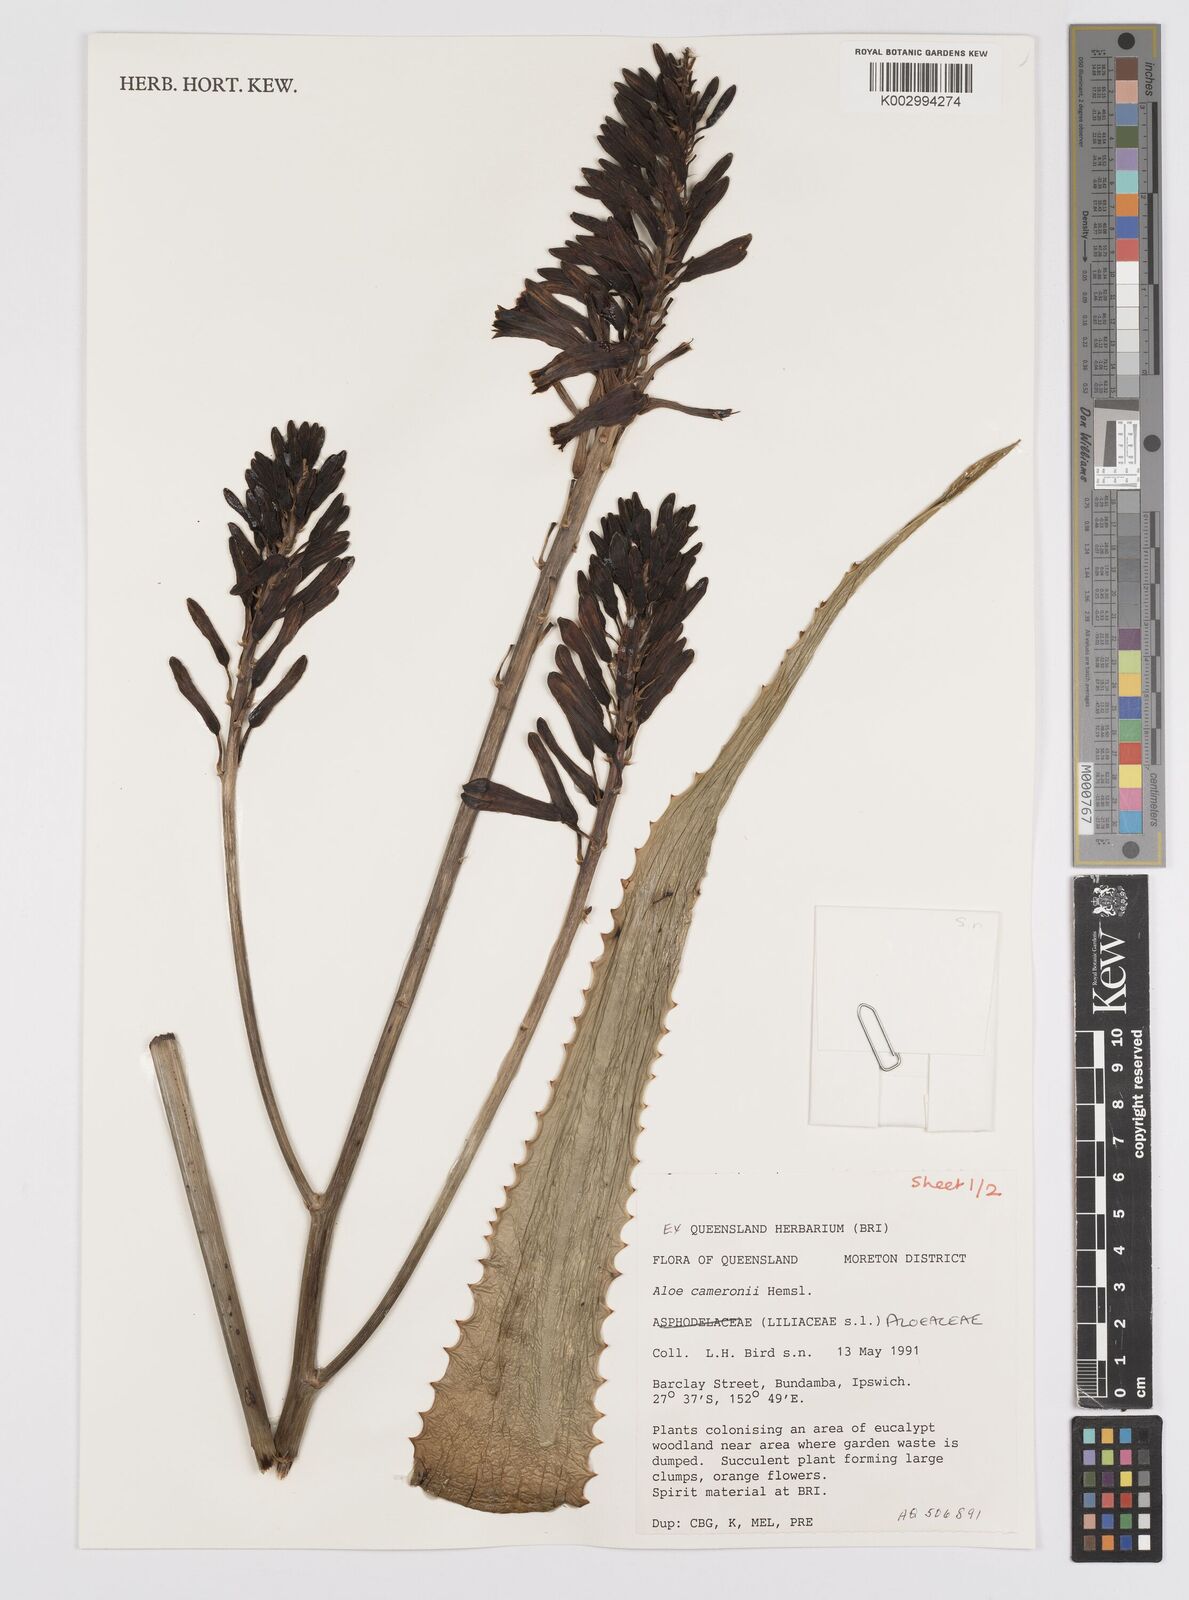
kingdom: Plantae
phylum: Tracheophyta
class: Liliopsida
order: Asparagales
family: Asphodelaceae
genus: Aloe
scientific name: Aloe cameronii
